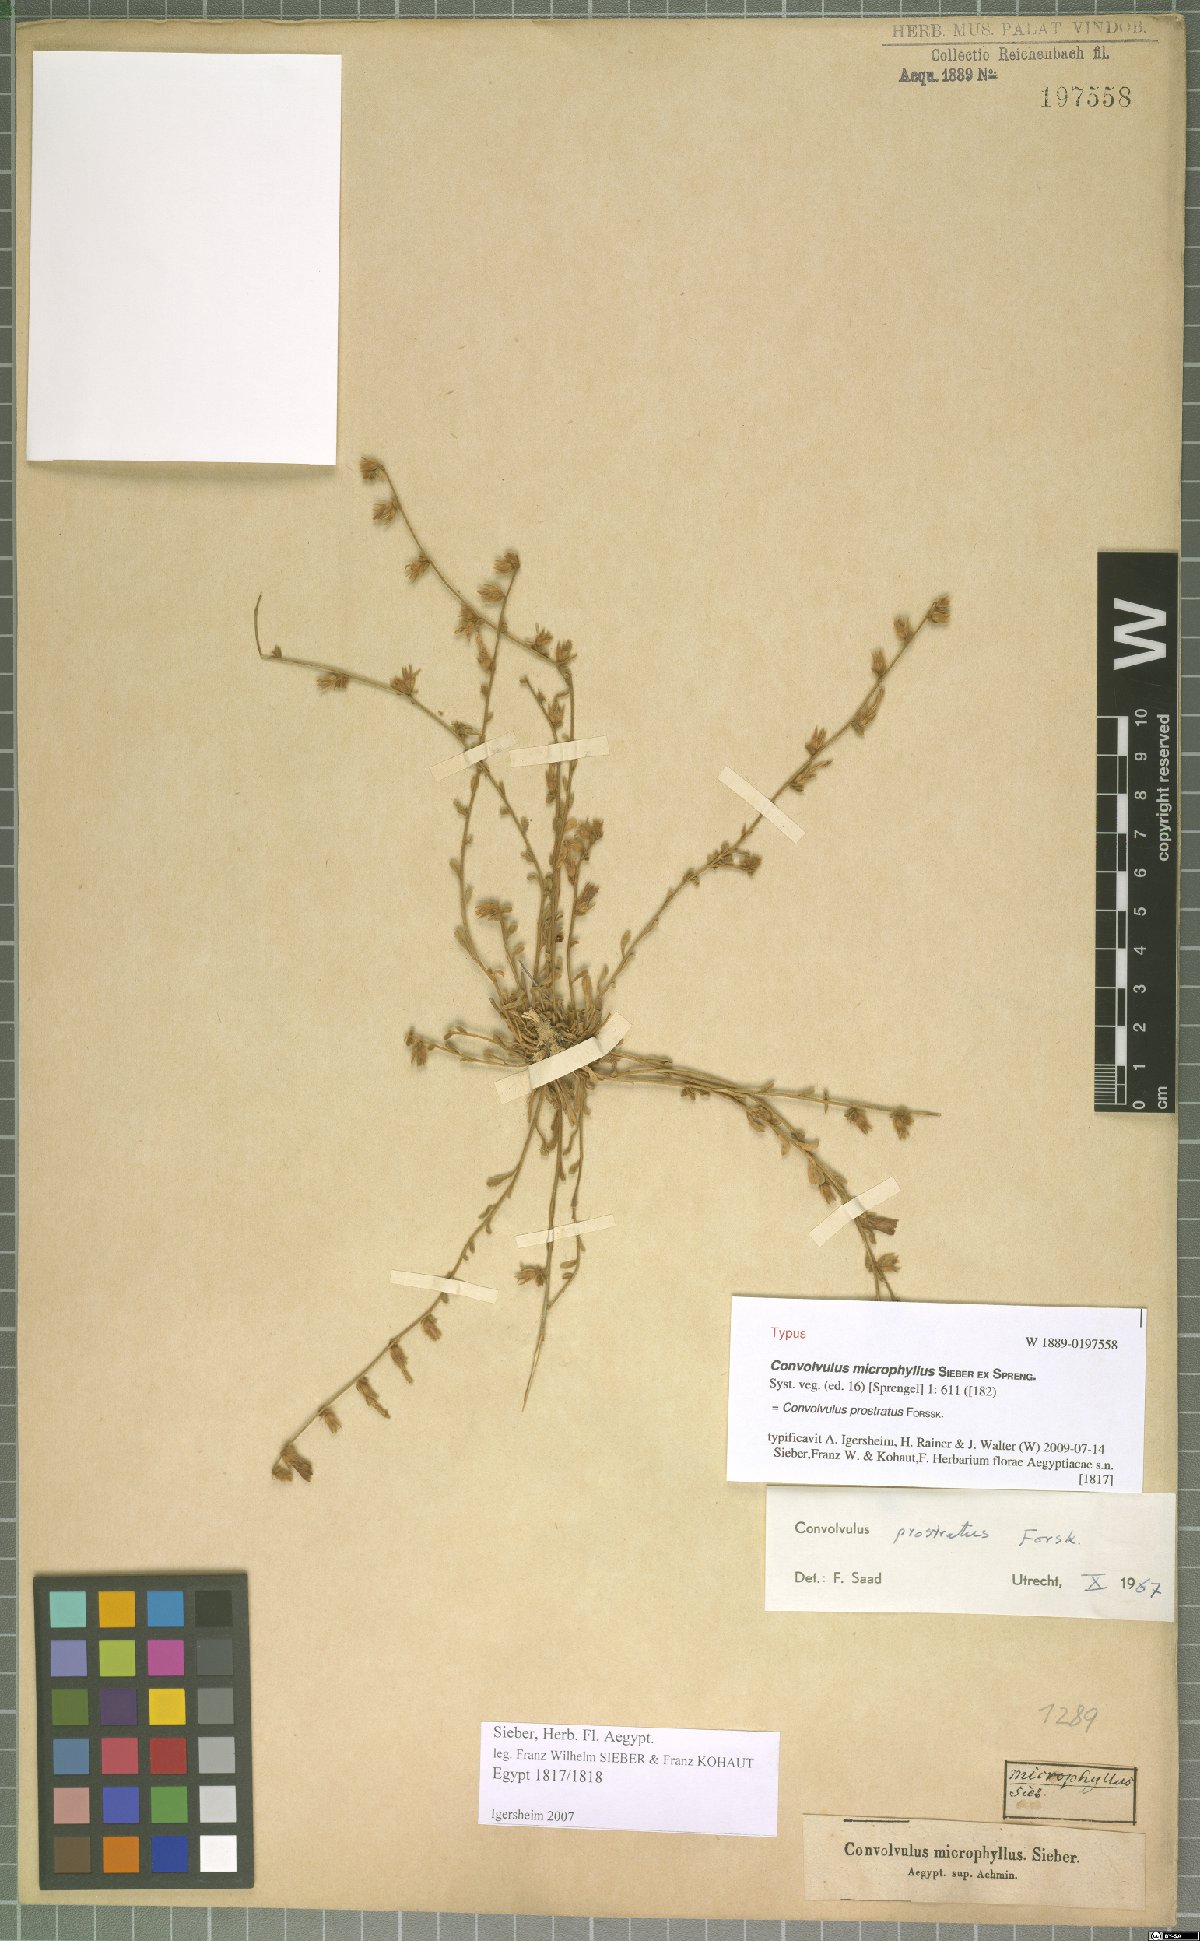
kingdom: Plantae
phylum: Tracheophyta
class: Magnoliopsida
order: Solanales
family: Convolvulaceae
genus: Convolvulus
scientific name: Convolvulus prostratus
